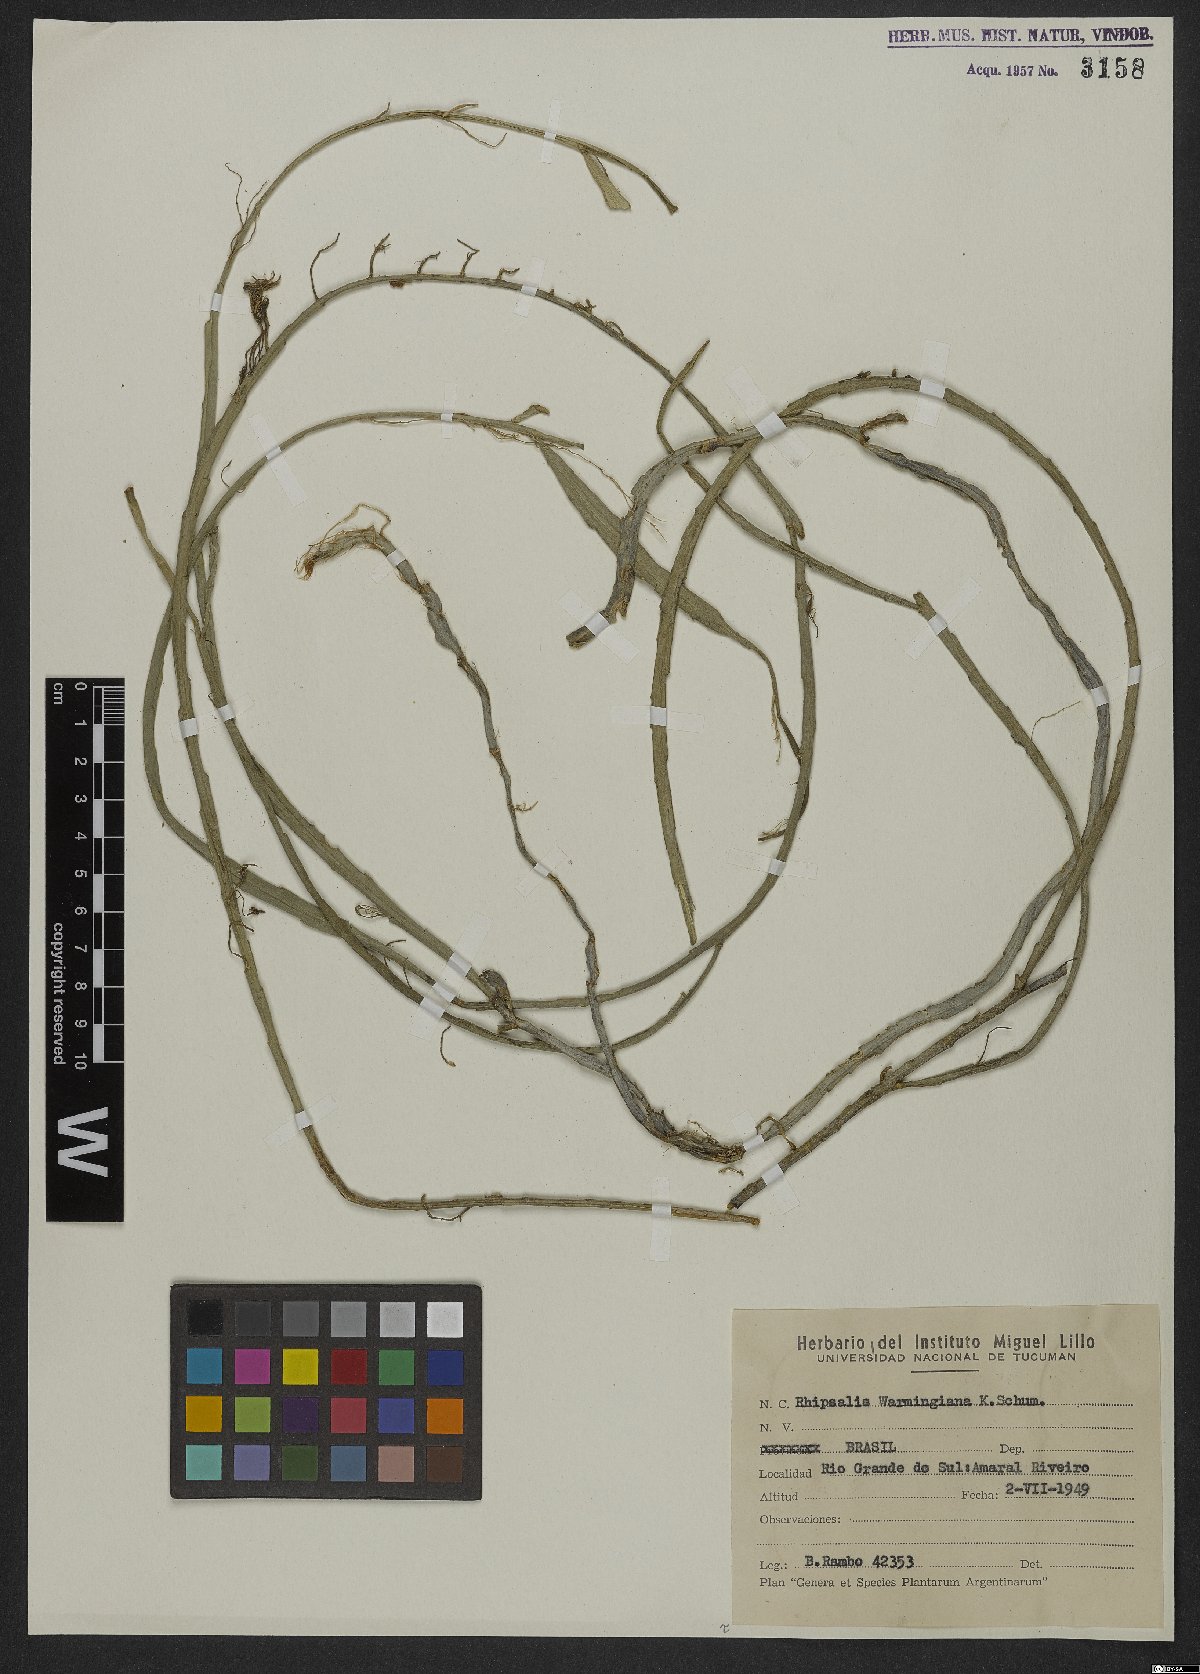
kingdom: Plantae
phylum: Tracheophyta
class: Magnoliopsida
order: Caryophyllales
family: Cactaceae
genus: Lepismium
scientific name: Lepismium warmingianum
